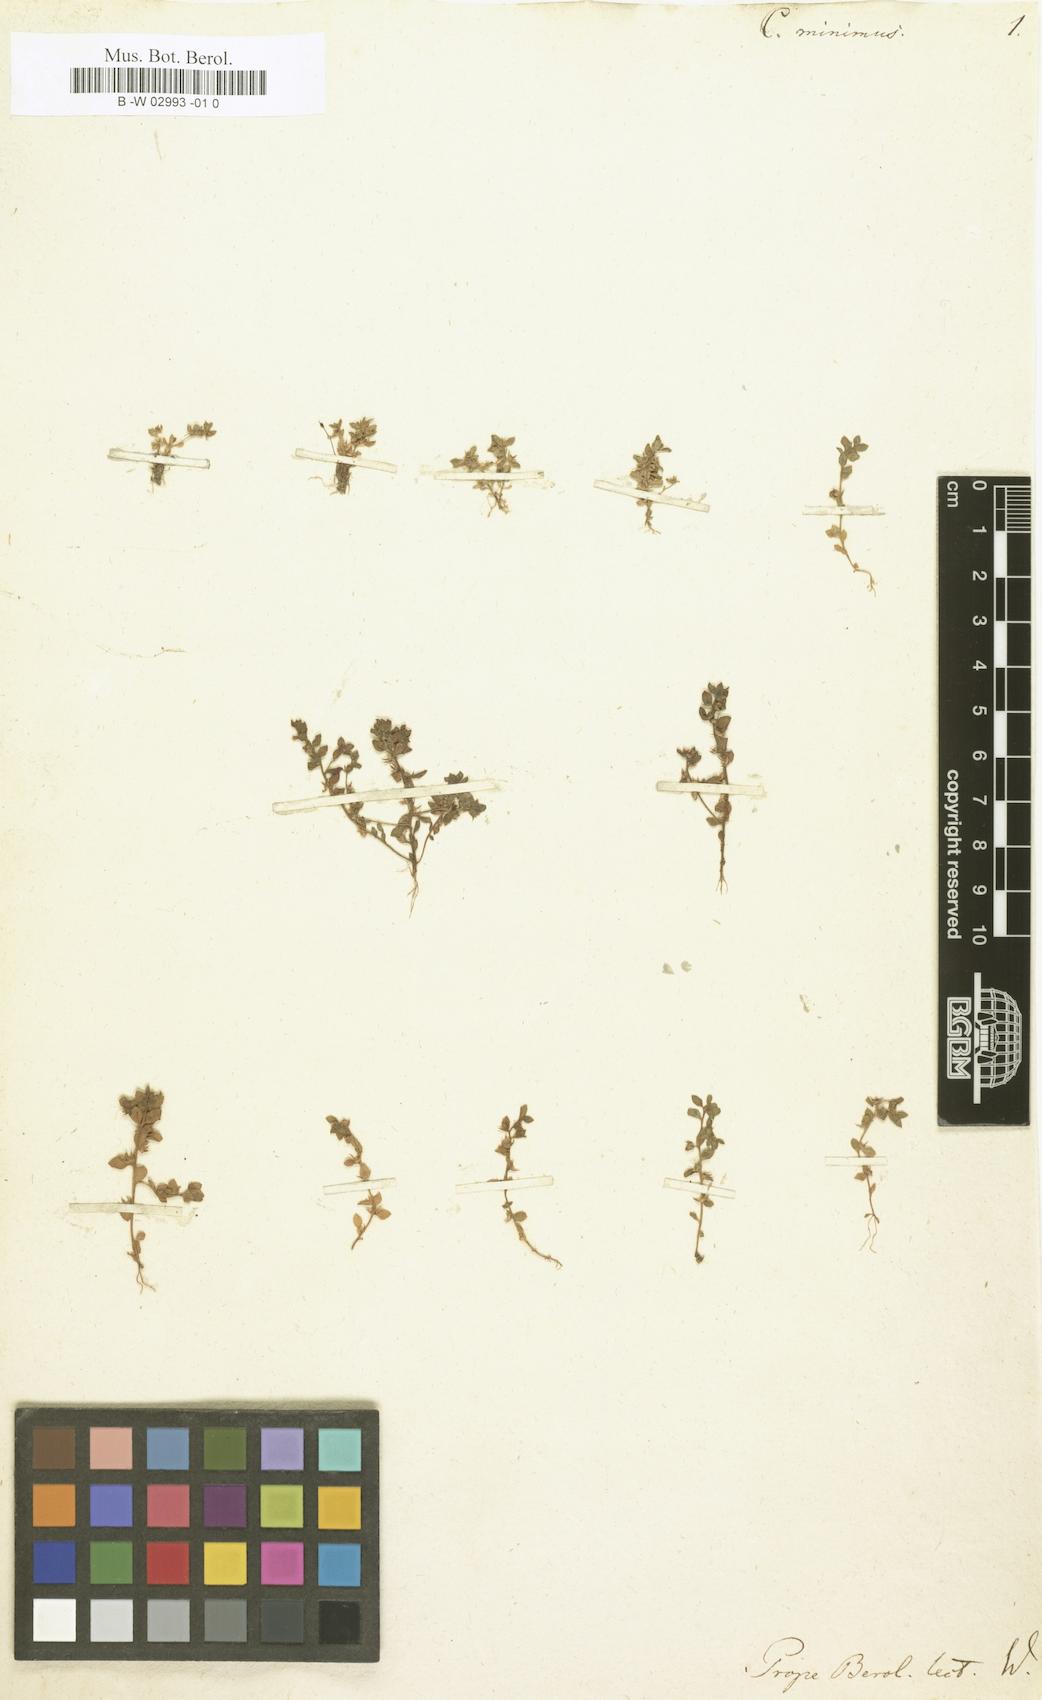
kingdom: Plantae
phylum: Tracheophyta
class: Magnoliopsida
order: Ericales
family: Primulaceae
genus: Lysimachia
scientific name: Lysimachia minima
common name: Chaffweed
